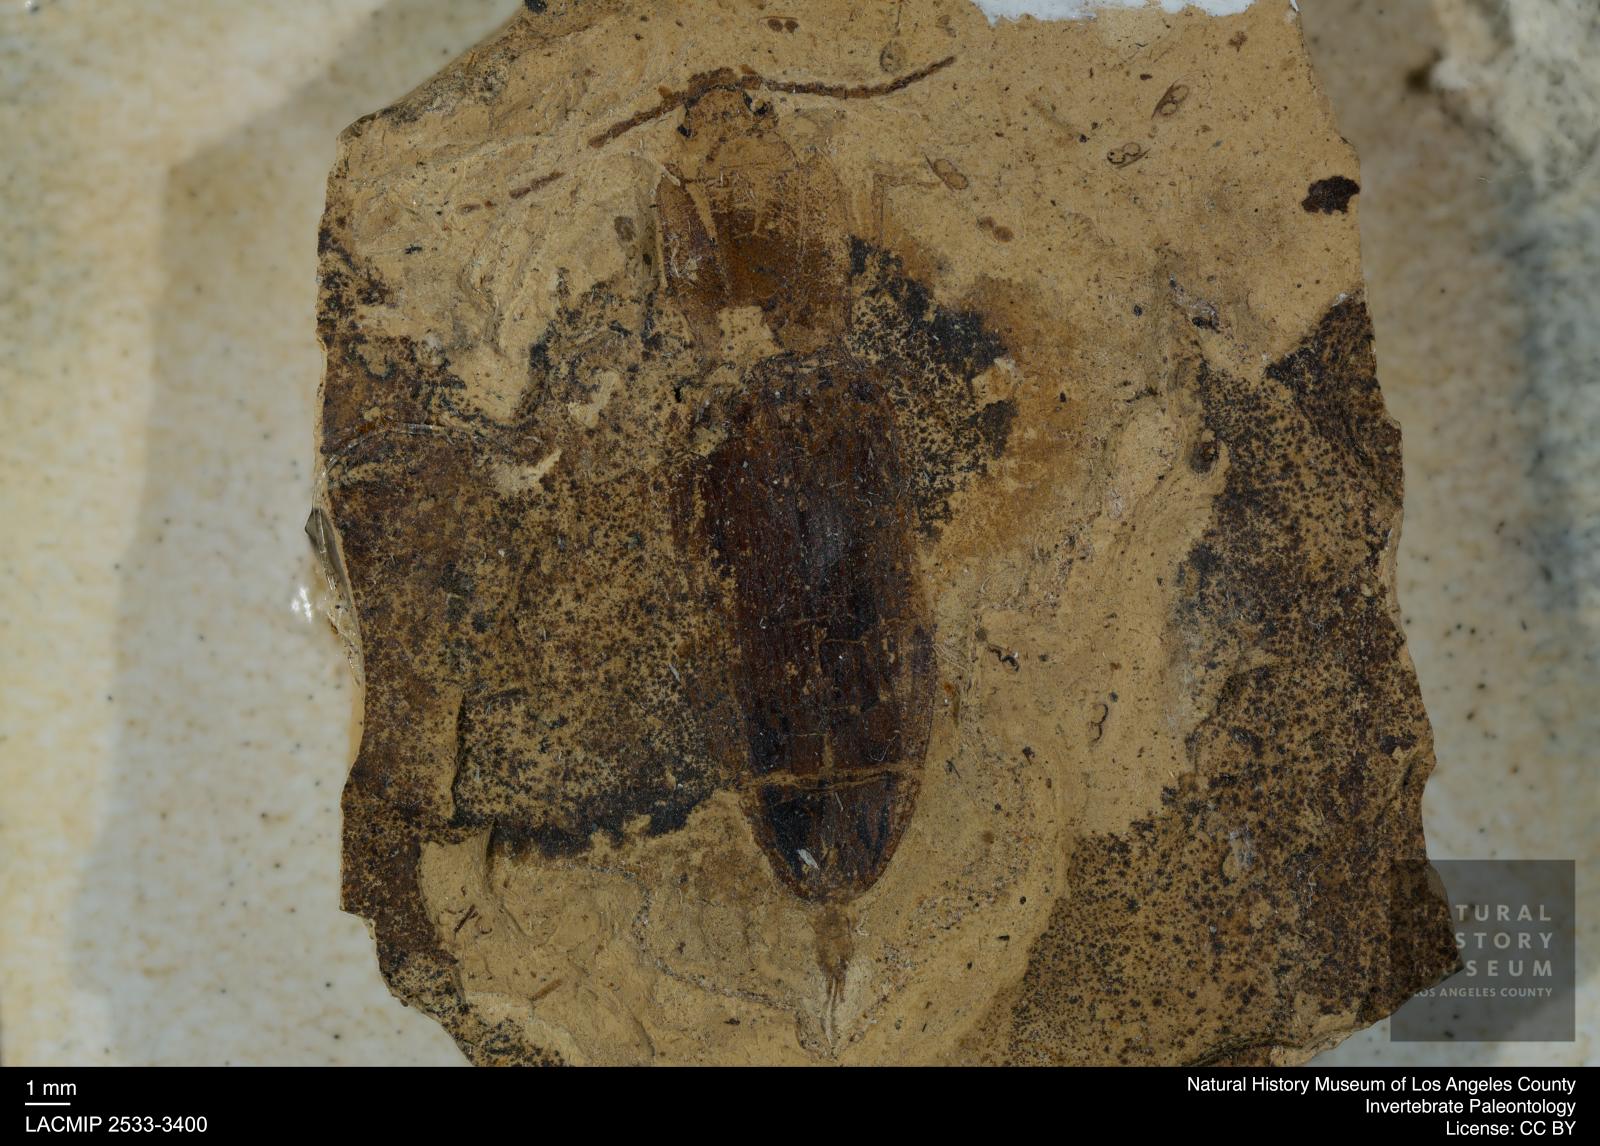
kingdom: Animalia
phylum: Arthropoda
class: Insecta
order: Coleoptera
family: Elateridae
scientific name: Elateridae
